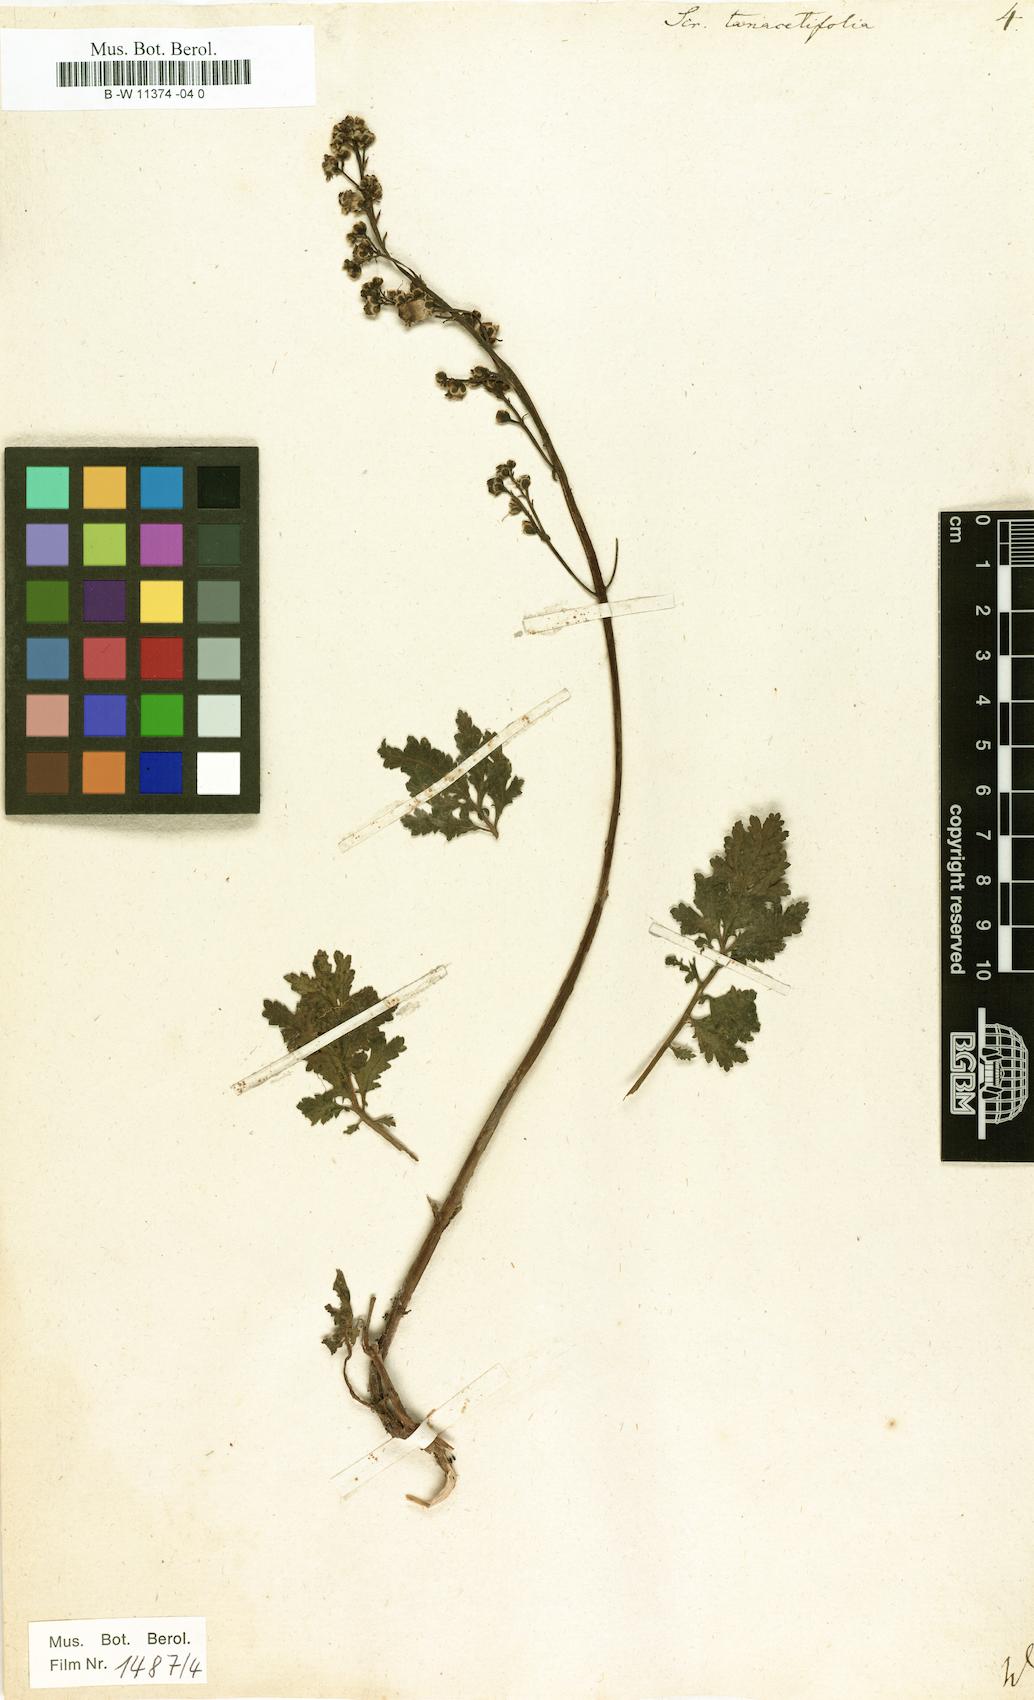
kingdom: Plantae
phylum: Tracheophyta
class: Magnoliopsida
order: Lamiales
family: Scrophulariaceae
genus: Scrophularia
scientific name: Scrophularia tanacetifolia
